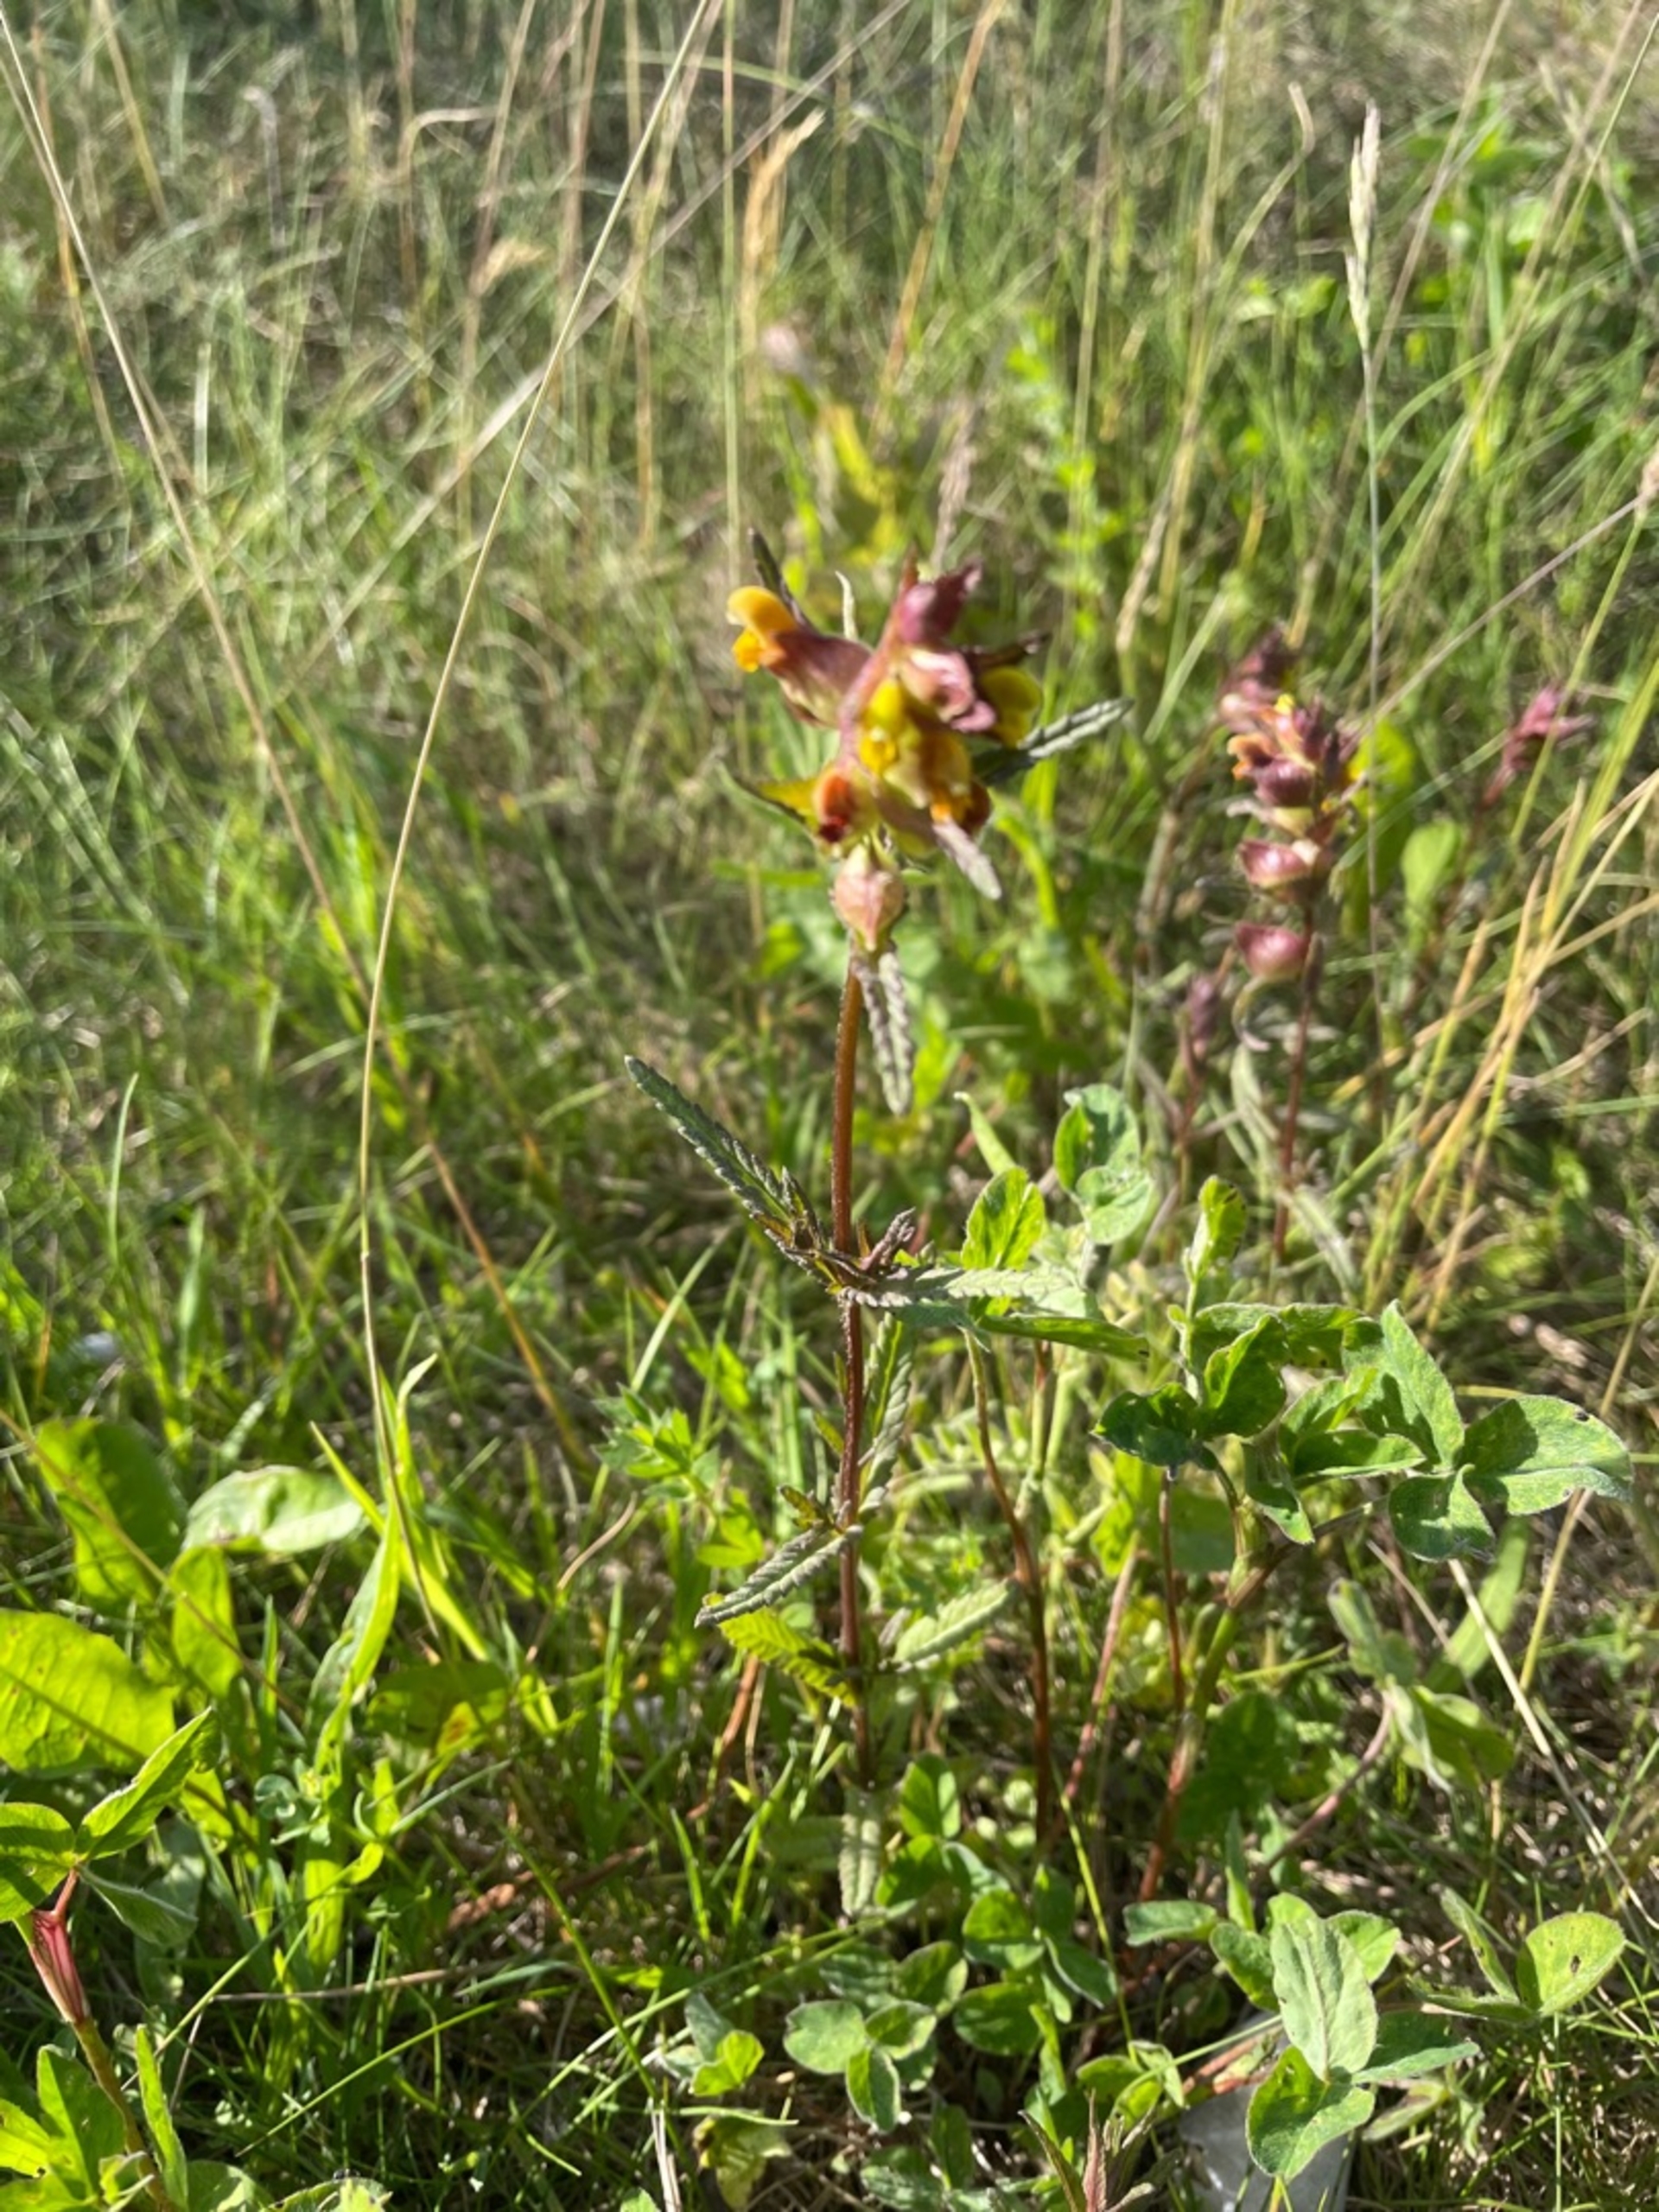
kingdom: Plantae
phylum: Tracheophyta
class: Magnoliopsida
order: Lamiales
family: Orobanchaceae
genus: Rhinanthus
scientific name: Rhinanthus minor
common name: Liden skjaller
